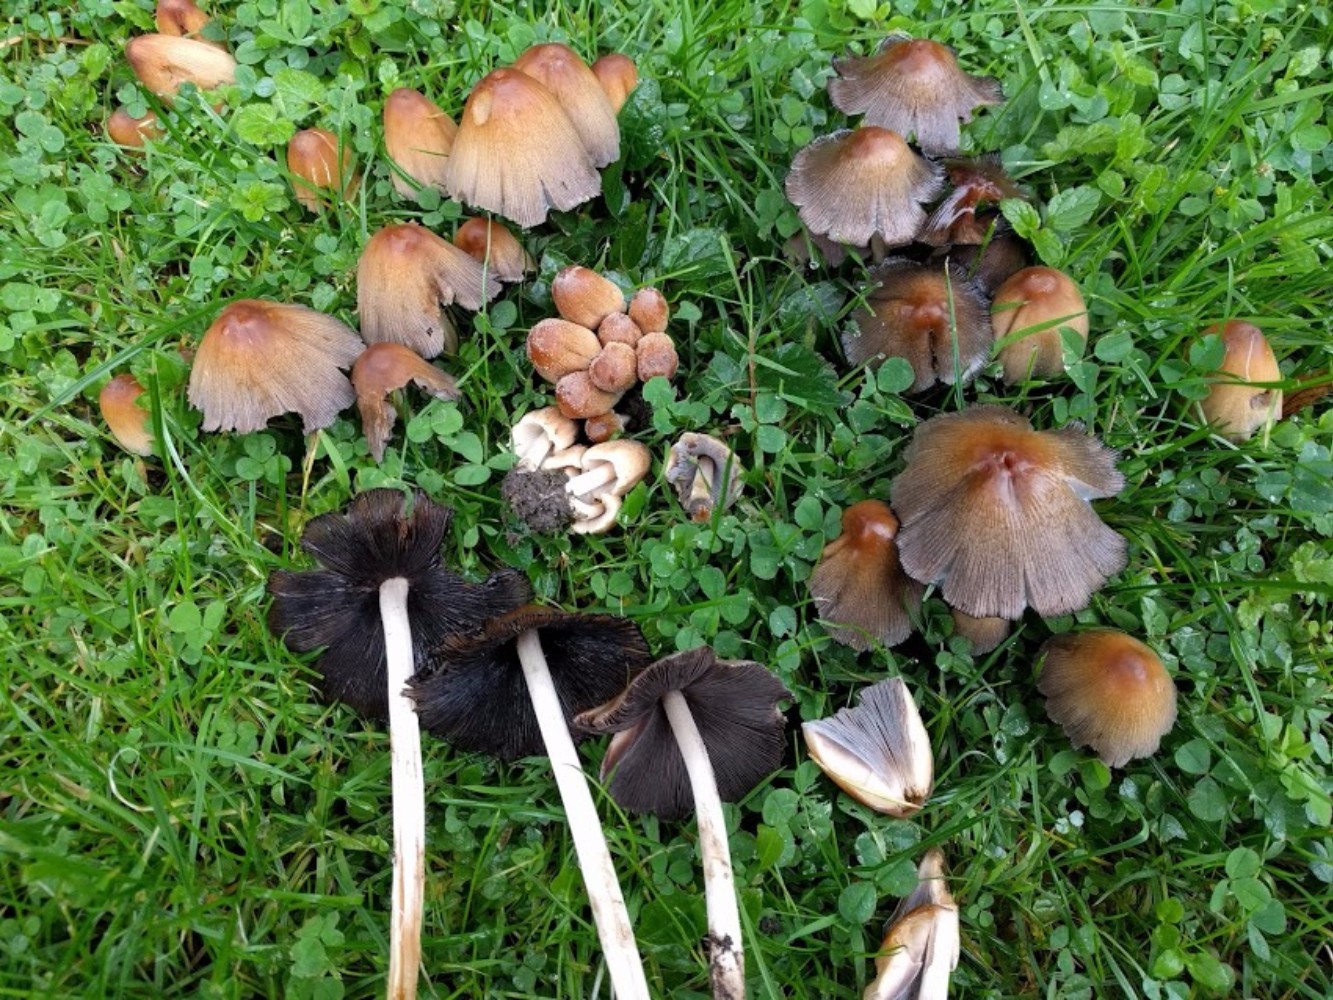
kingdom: Fungi
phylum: Basidiomycota
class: Agaricomycetes
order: Agaricales
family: Psathyrellaceae
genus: Coprinellus
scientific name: Coprinellus micaceus
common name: glimmer-blækhat
